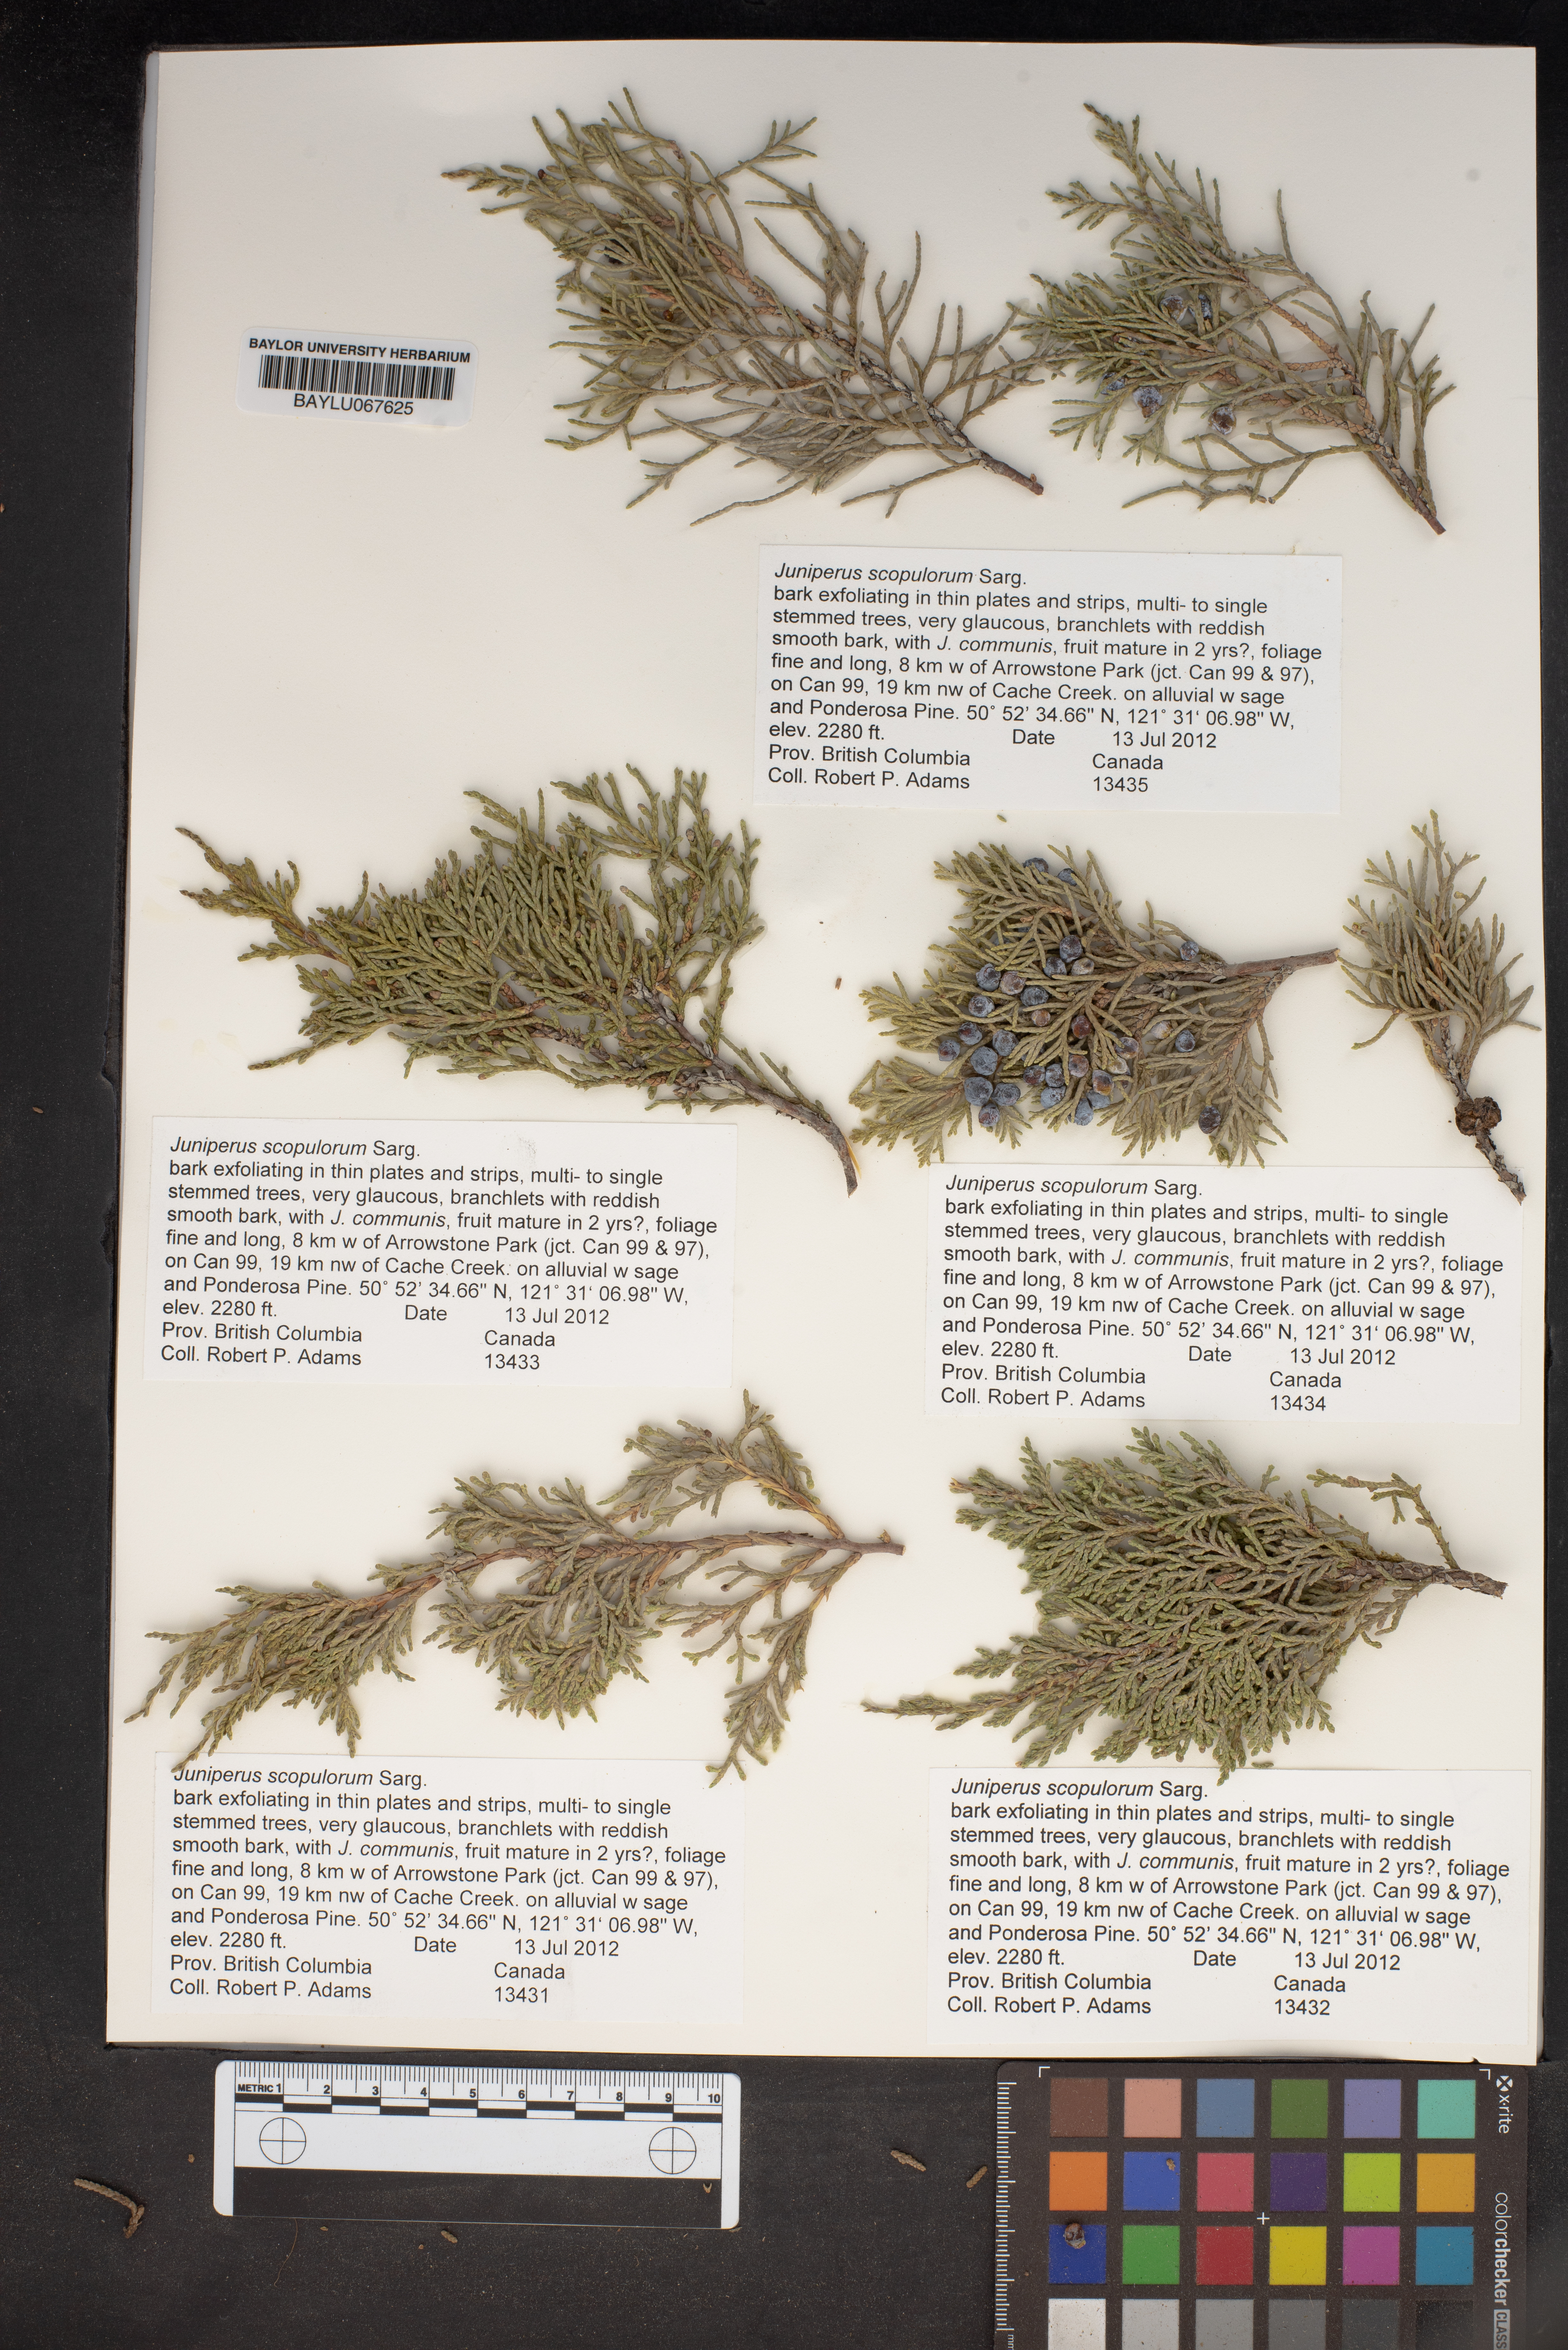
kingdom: Plantae
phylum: Tracheophyta
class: Pinopsida
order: Pinales
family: Cupressaceae
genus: Juniperus
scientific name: Juniperus scopulorum
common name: Rocky mountain juniper
